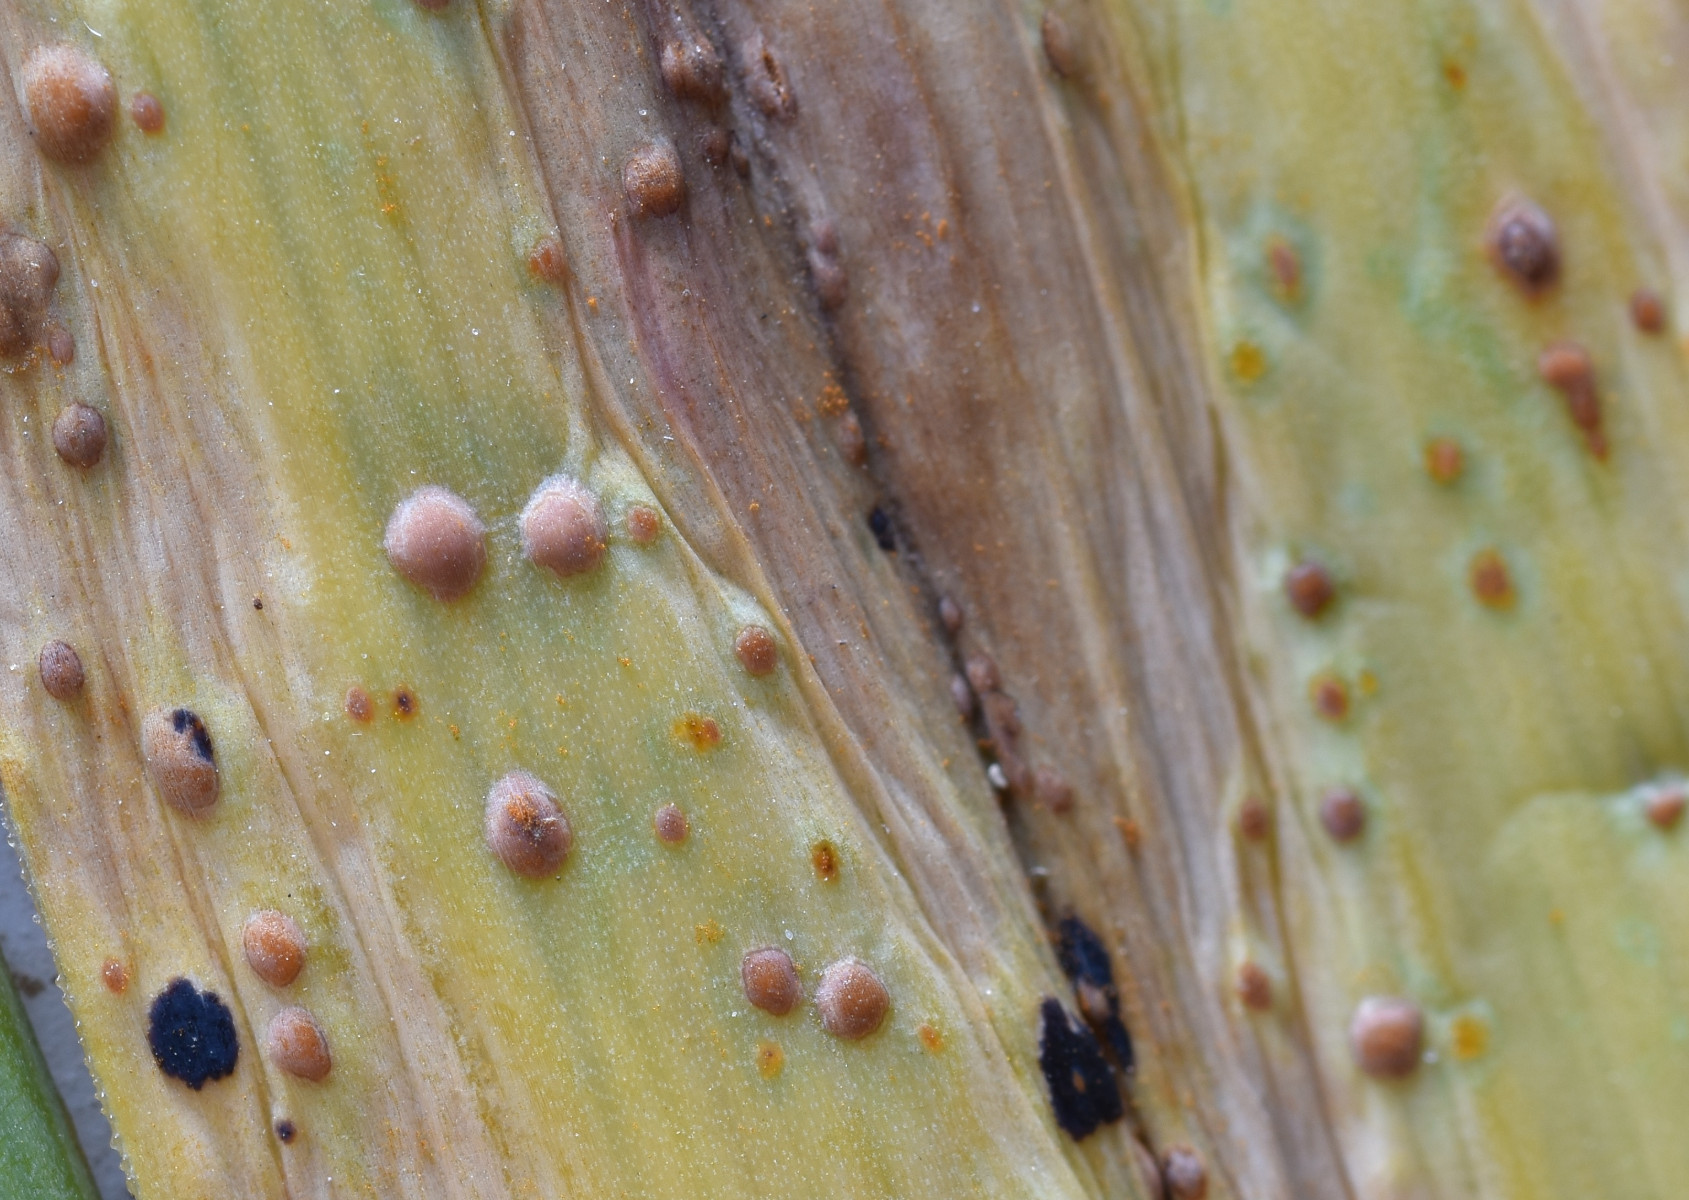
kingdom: Fungi
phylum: Basidiomycota
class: Pucciniomycetes
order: Pucciniales
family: Pucciniaceae
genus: Puccinia
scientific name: Puccinia porri
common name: Allium rust
